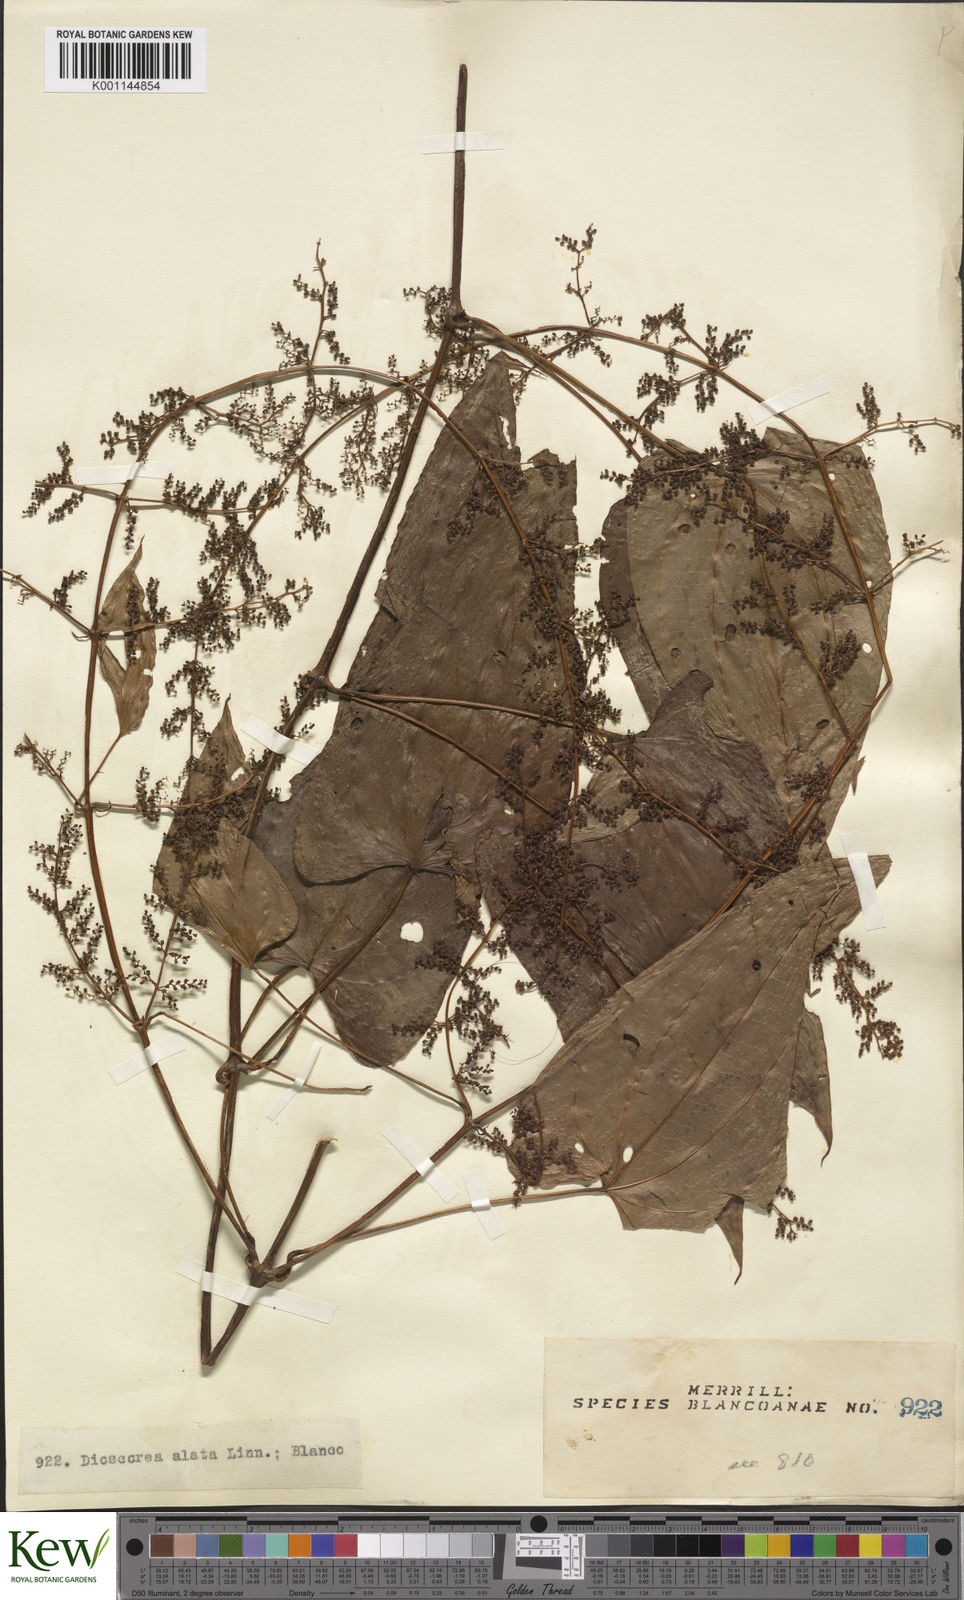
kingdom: Plantae
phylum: Tracheophyta
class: Liliopsida
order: Dioscoreales
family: Dioscoreaceae
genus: Dioscorea
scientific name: Dioscorea alata
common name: Water yam
